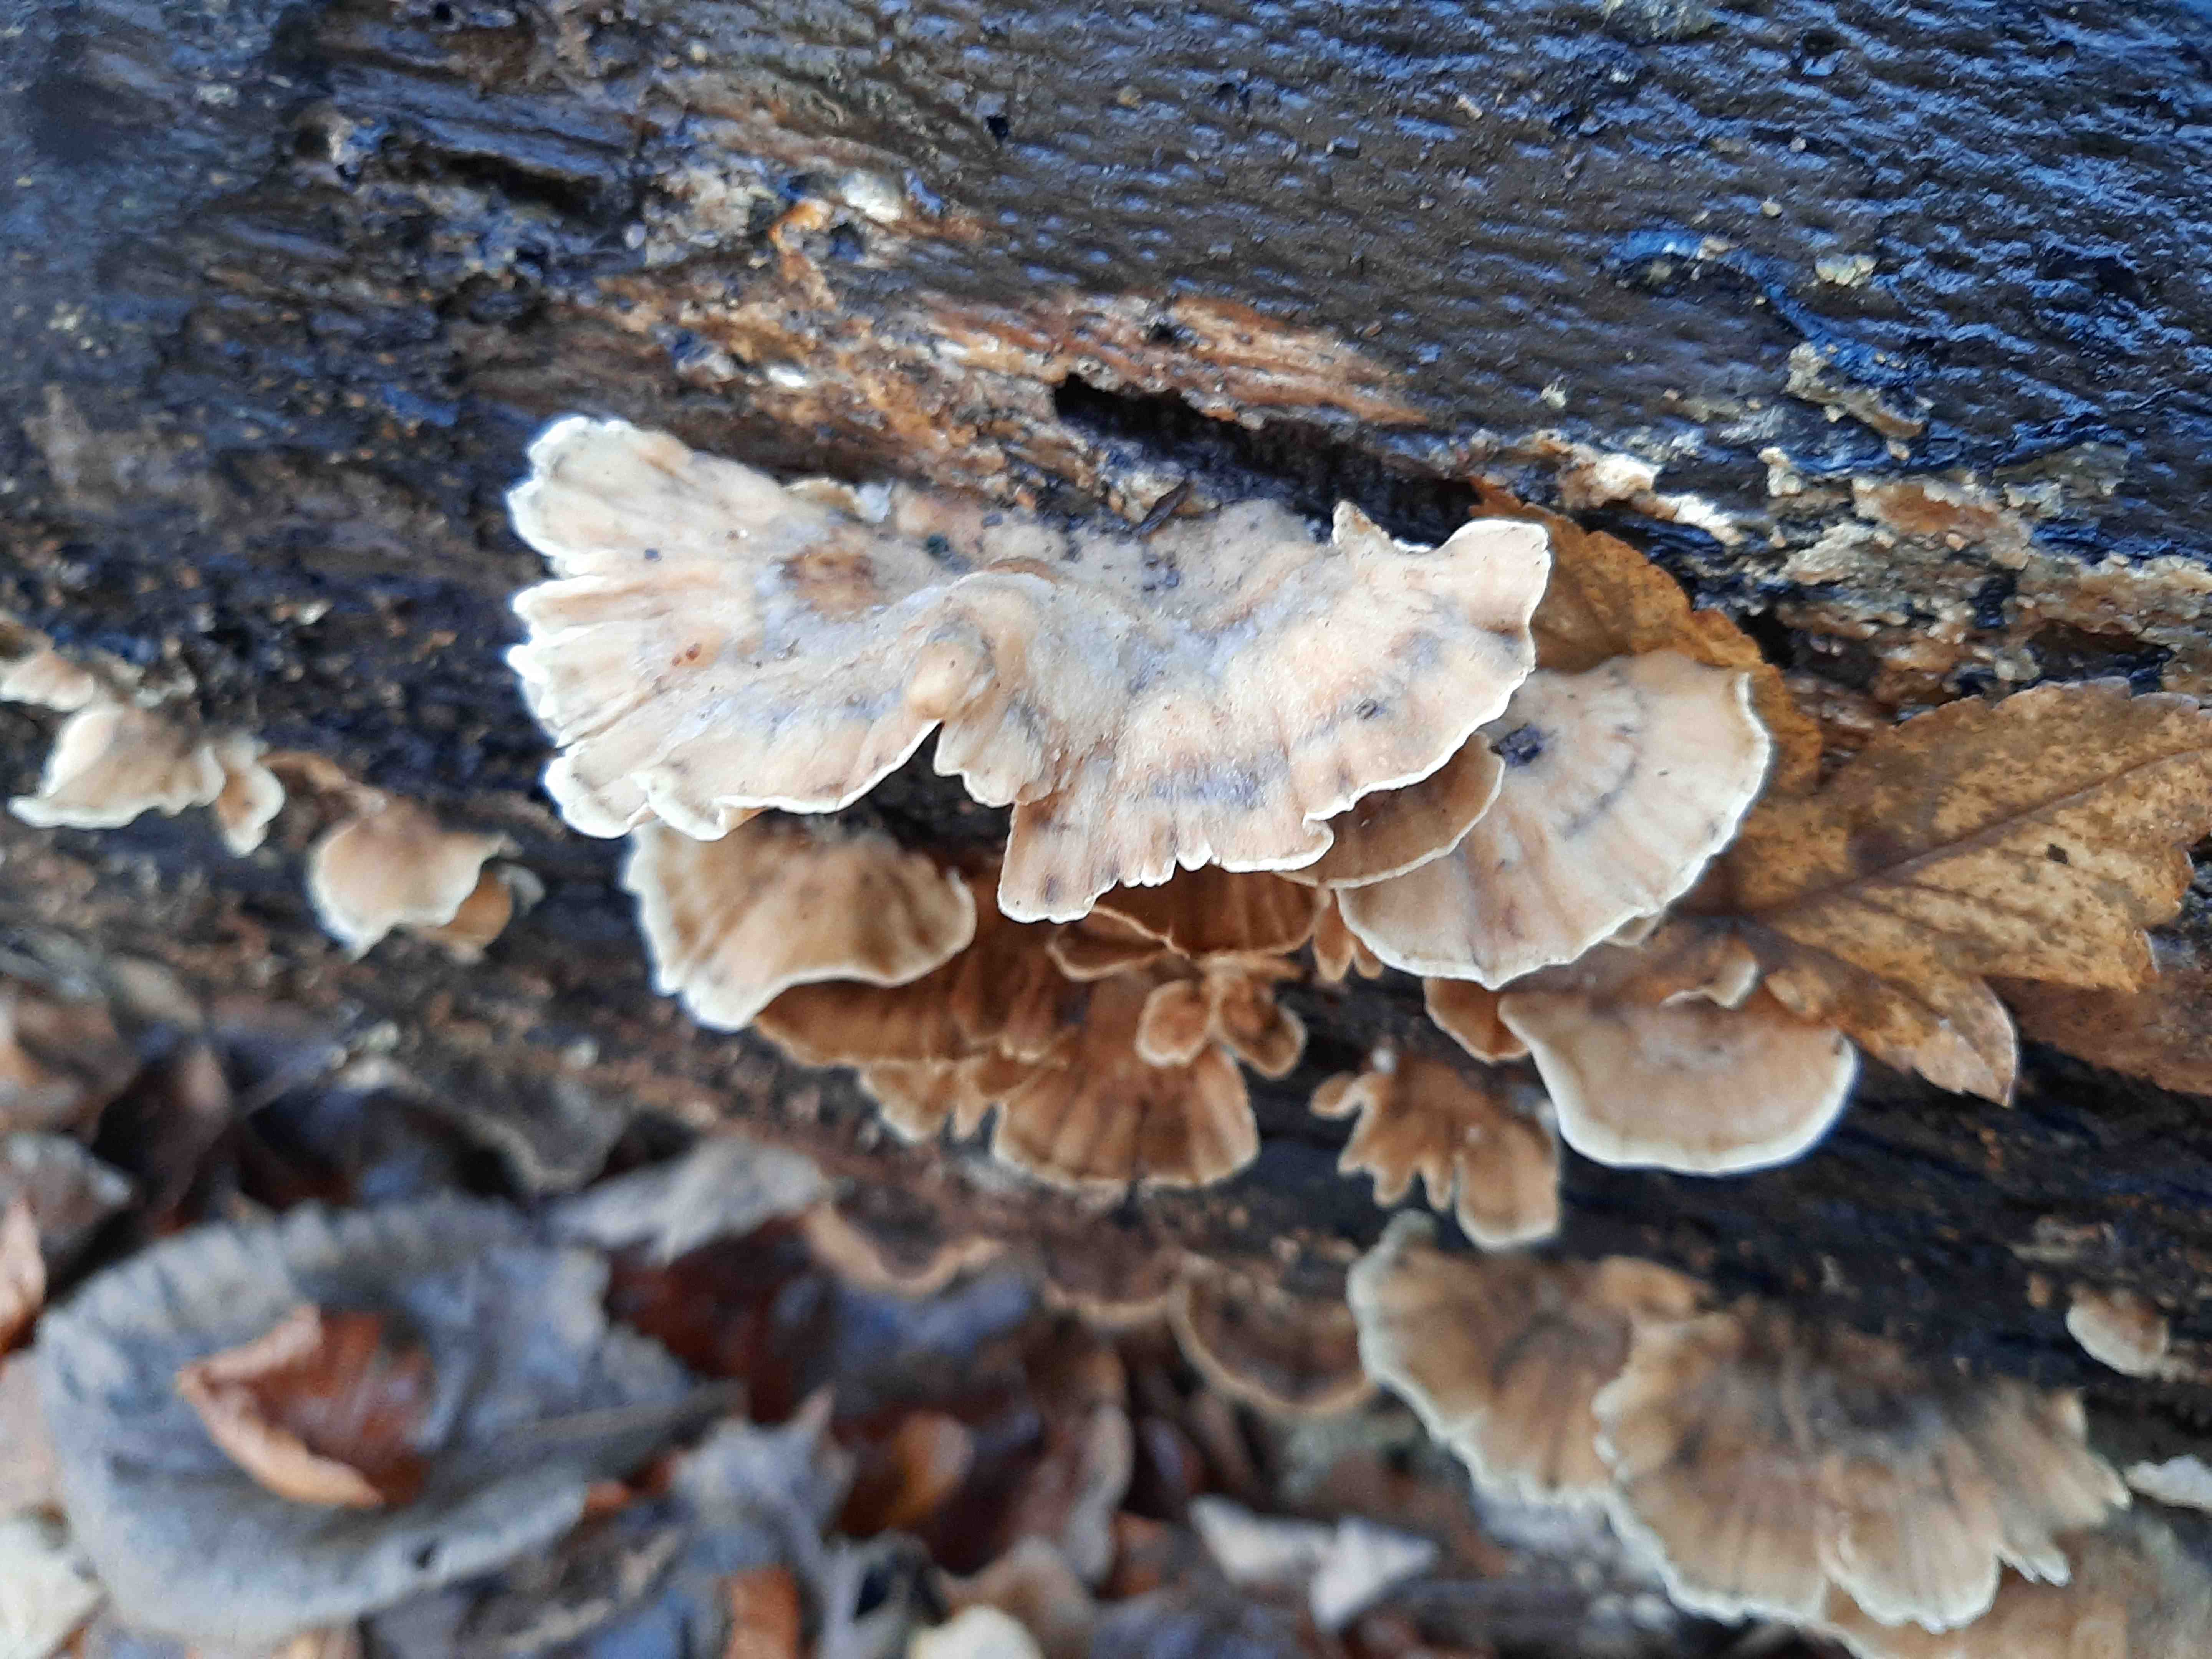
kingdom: Fungi
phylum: Basidiomycota
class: Agaricomycetes
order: Polyporales
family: Polyporaceae
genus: Trametes
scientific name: Trametes versicolor
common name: broget læderporesvamp
